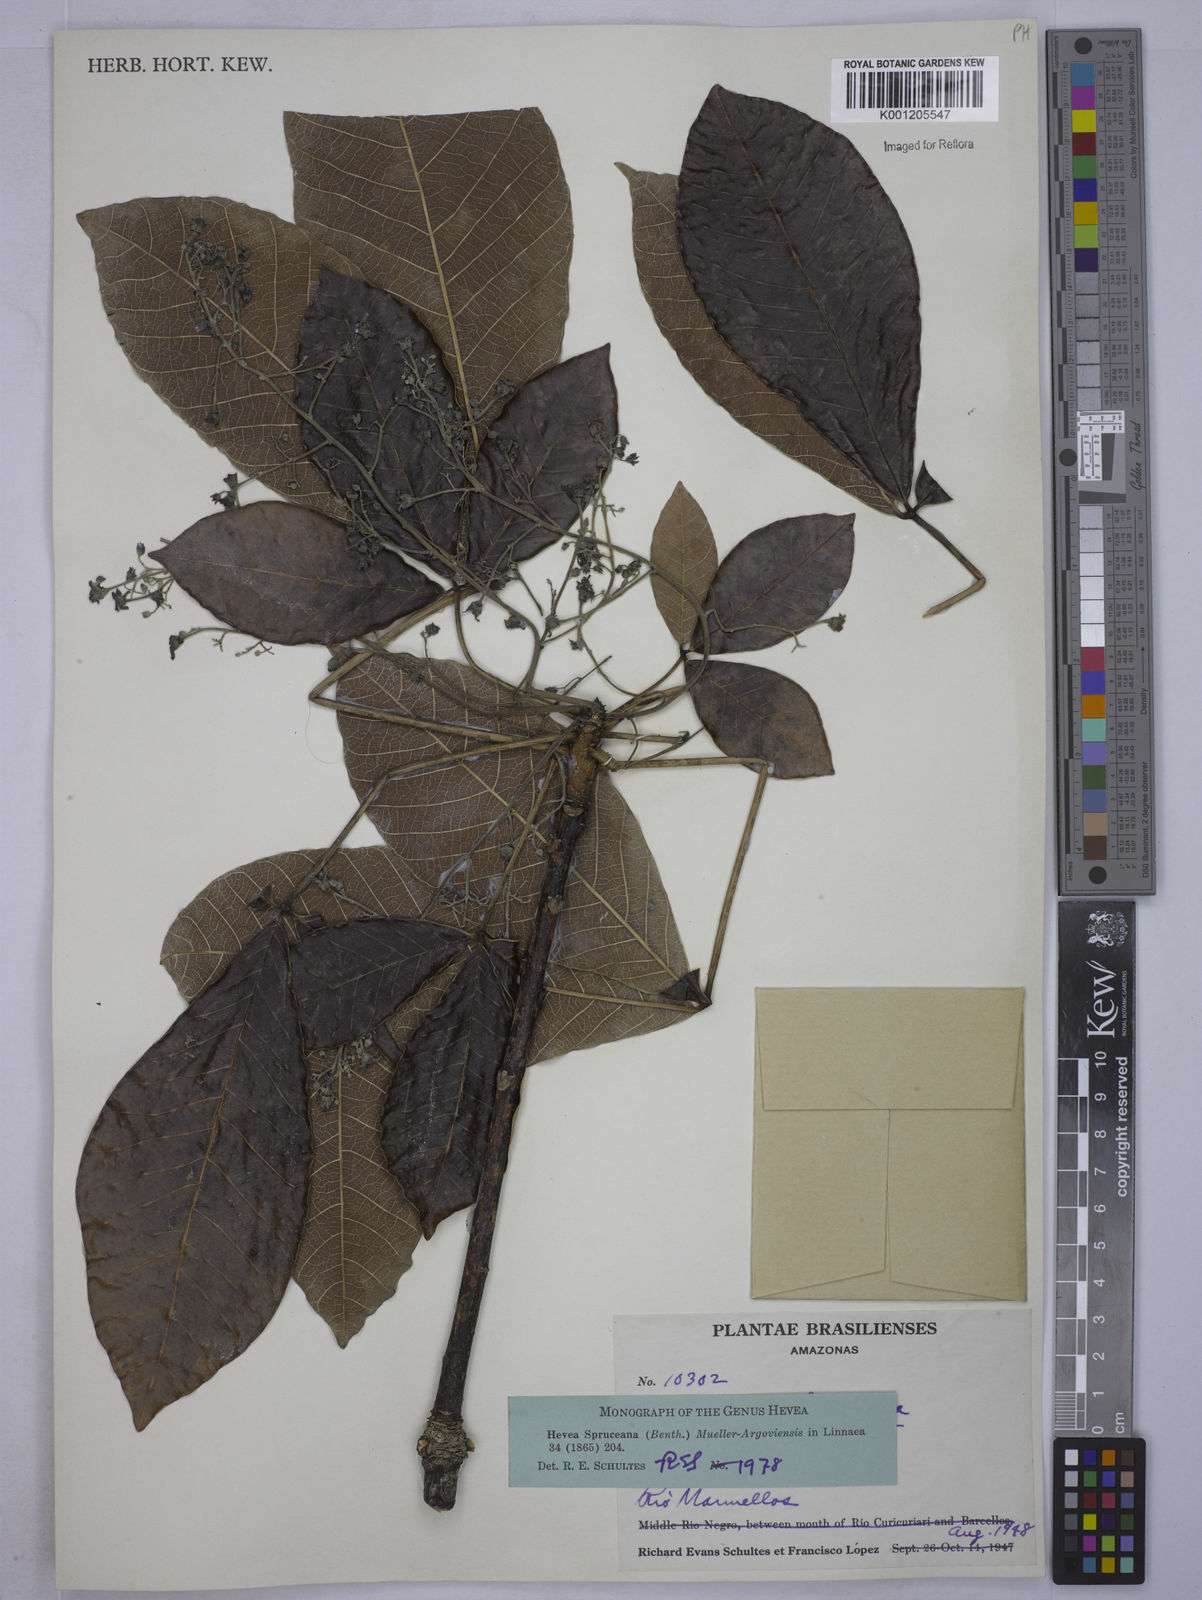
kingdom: Plantae
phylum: Tracheophyta
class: Magnoliopsida
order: Malpighiales
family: Euphorbiaceae
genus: Hevea
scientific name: Hevea
